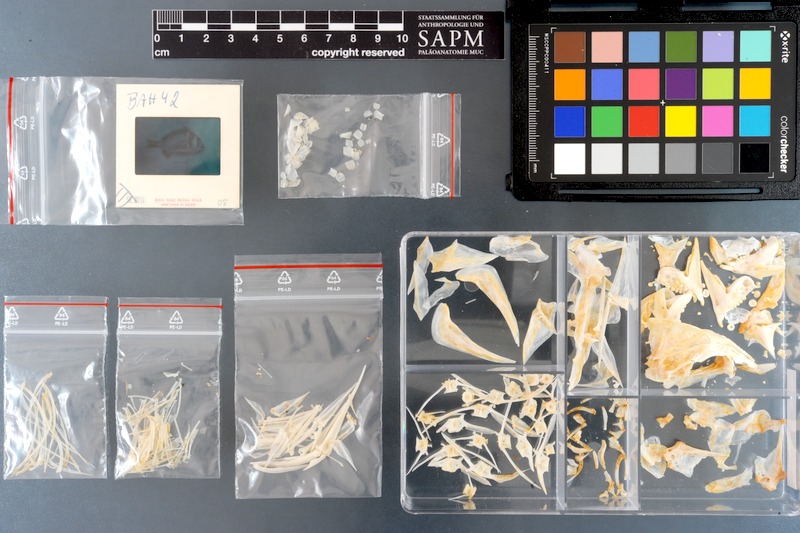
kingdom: Animalia
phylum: Chordata
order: Perciformes
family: Sparidae
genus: Acanthopagrus
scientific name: Acanthopagrus bifasciatus
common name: Twobar seabream
